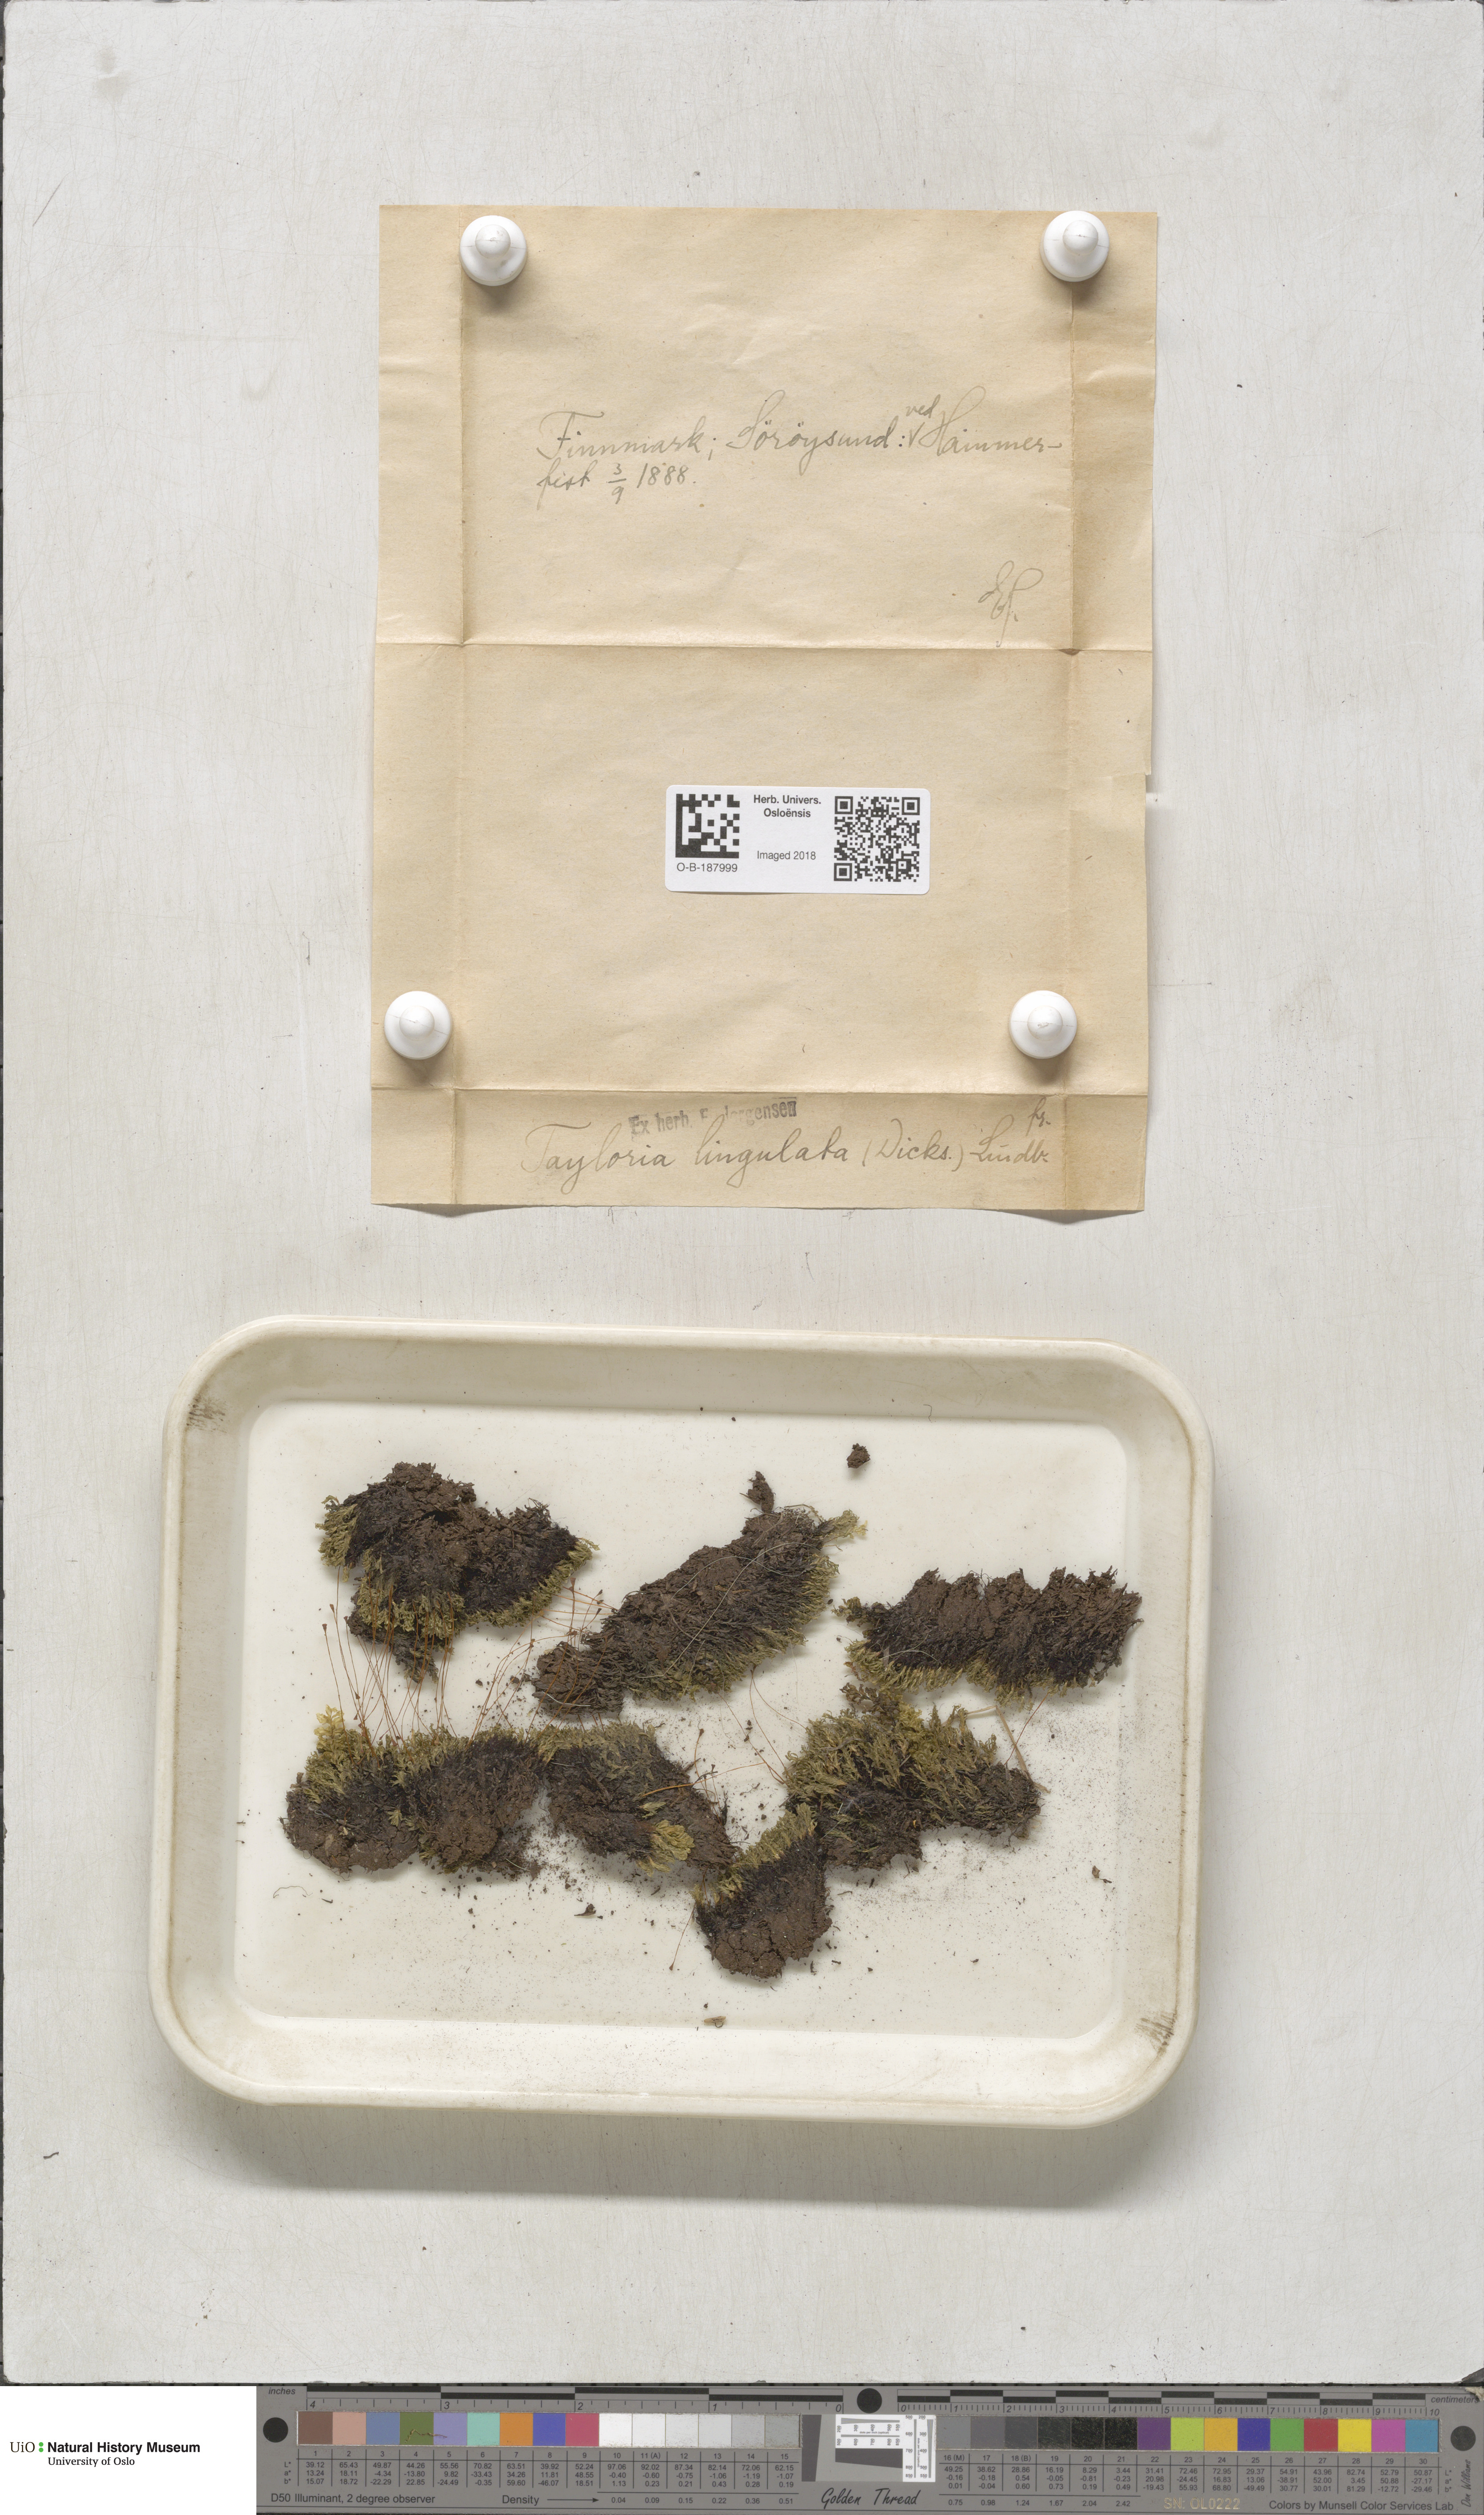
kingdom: Plantae
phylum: Bryophyta
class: Bryopsida
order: Splachnales
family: Splachnaceae
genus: Tayloria
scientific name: Tayloria lingulata
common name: Tongue-leaved trumpet moss
